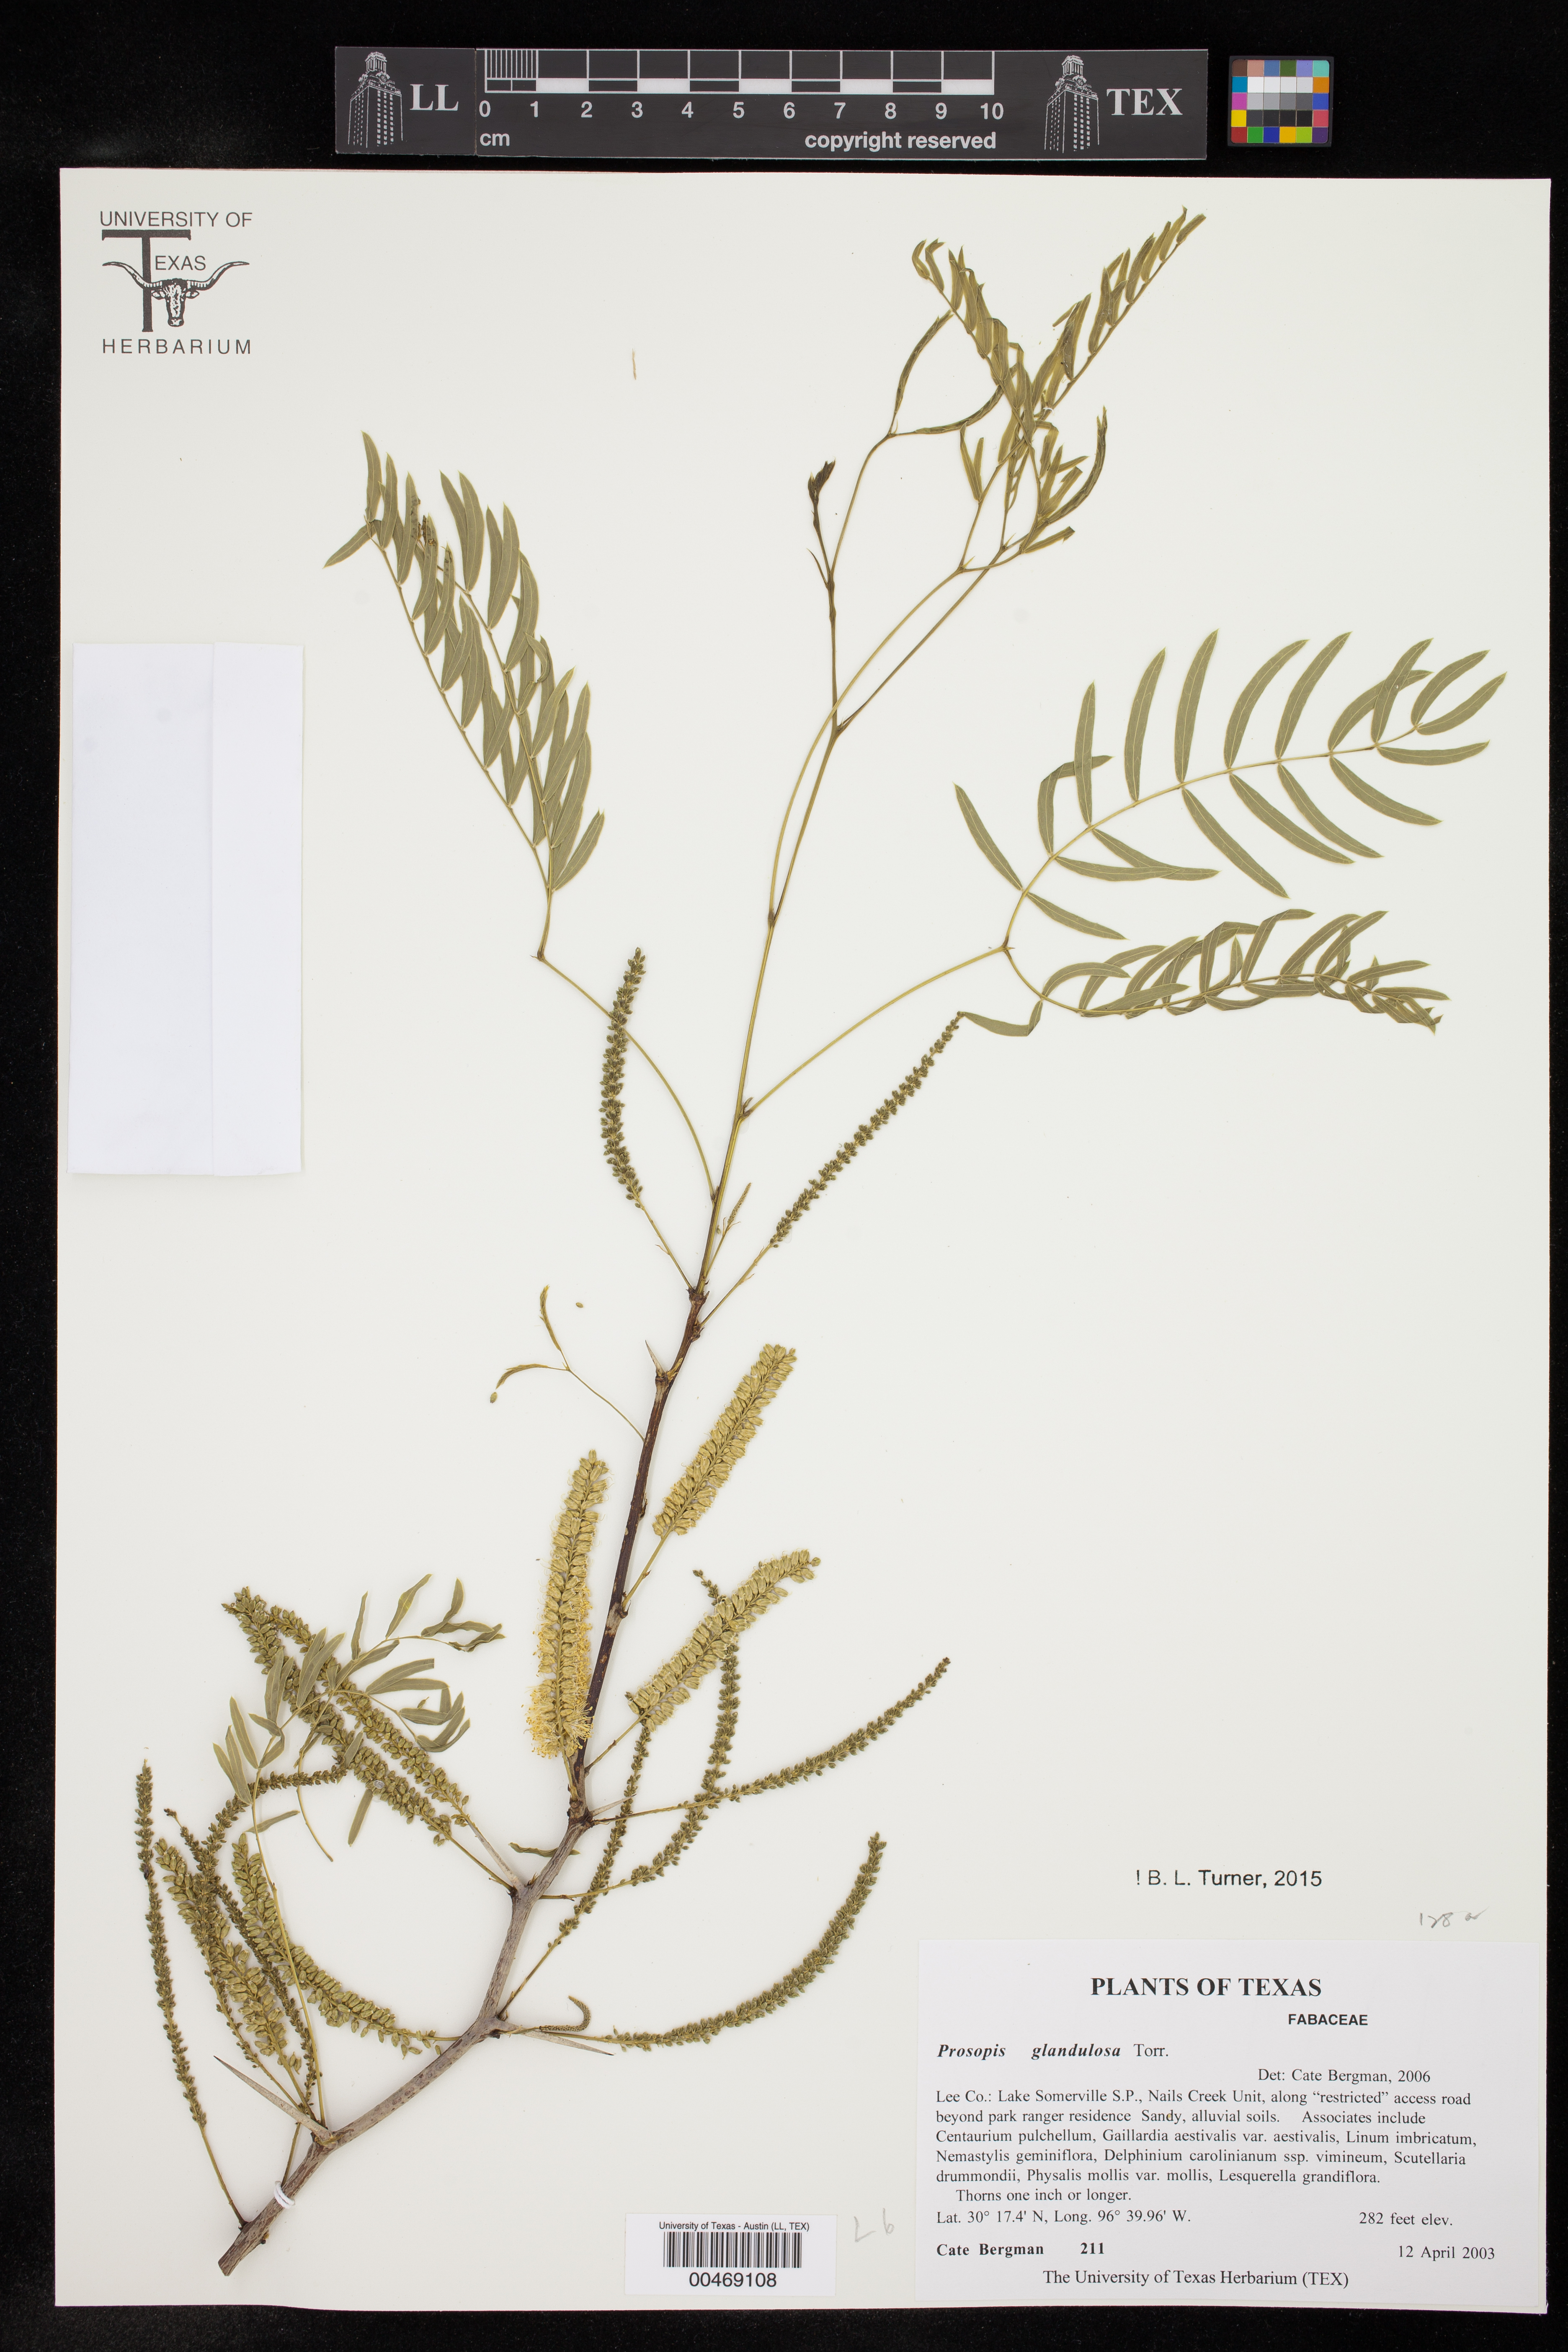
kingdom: Plantae
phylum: Tracheophyta
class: Magnoliopsida
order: Fabales
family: Fabaceae
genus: Prosopis
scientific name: Prosopis glandulosa
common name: Honey mesquite
